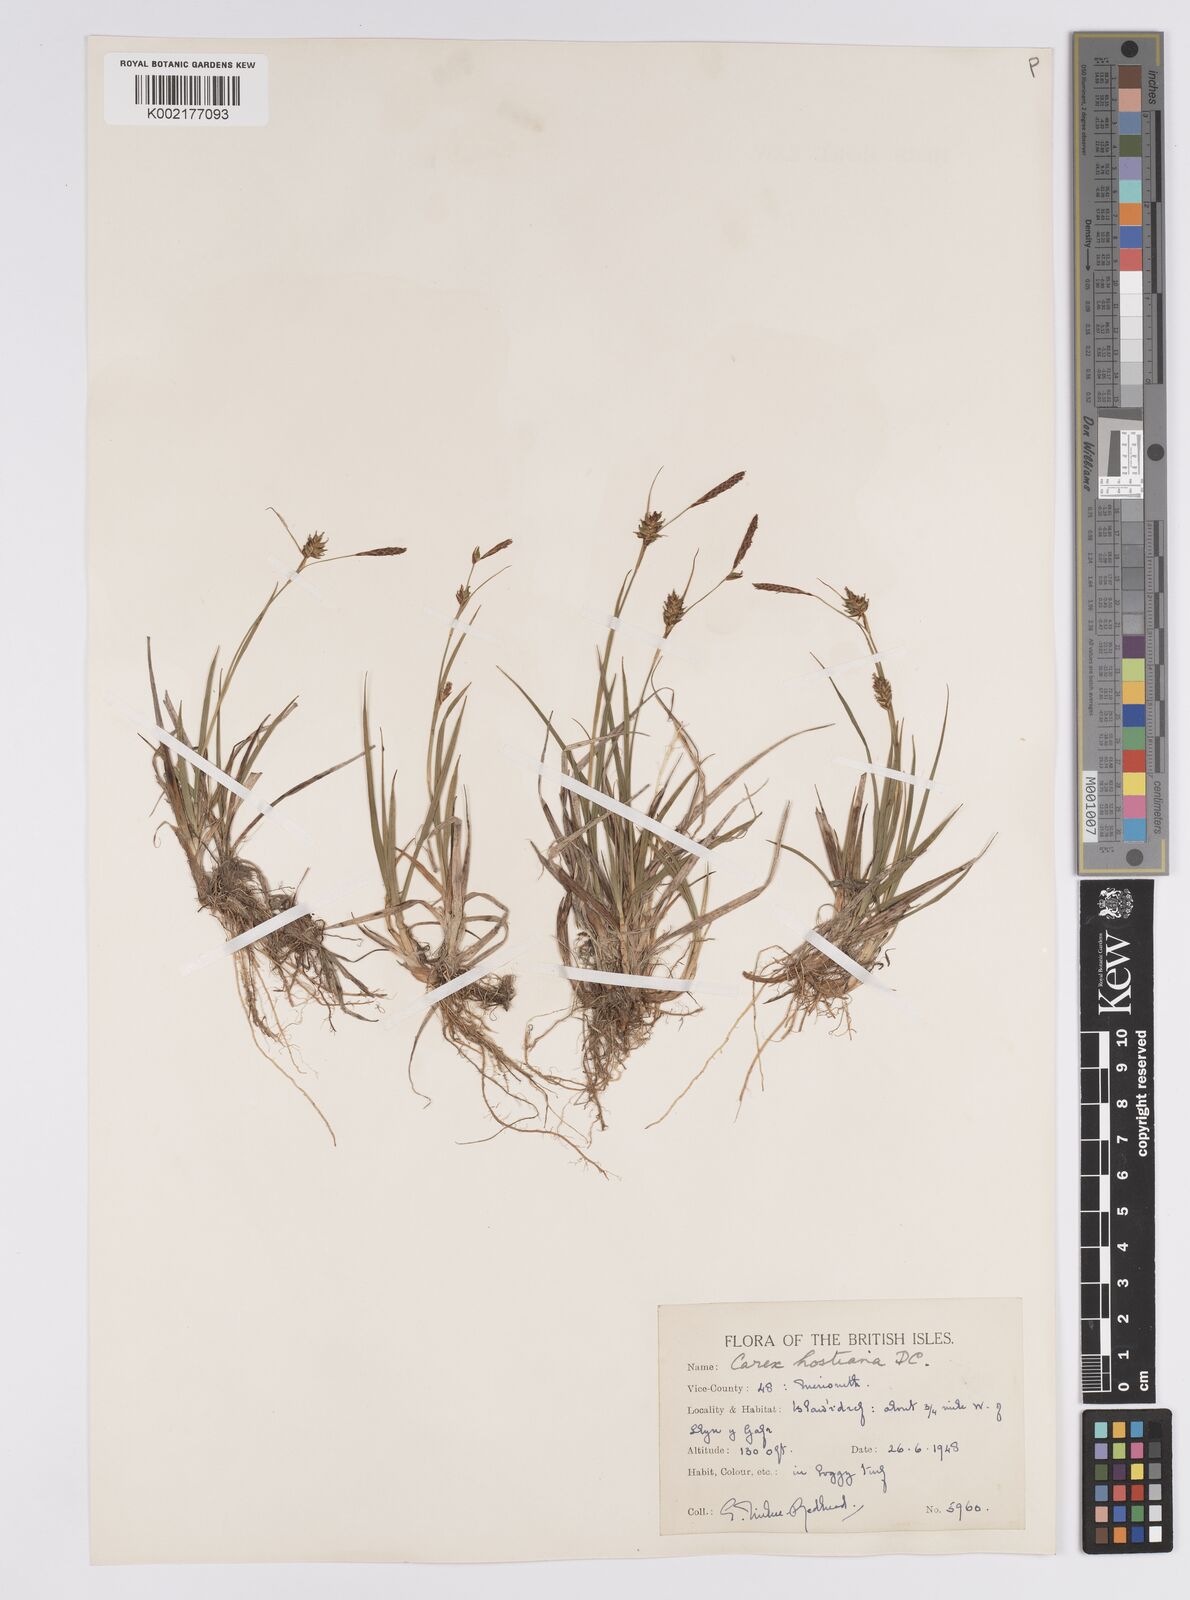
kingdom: Plantae
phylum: Tracheophyta
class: Liliopsida
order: Poales
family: Cyperaceae
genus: Carex
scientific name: Carex hostiana
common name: Tawny sedge
